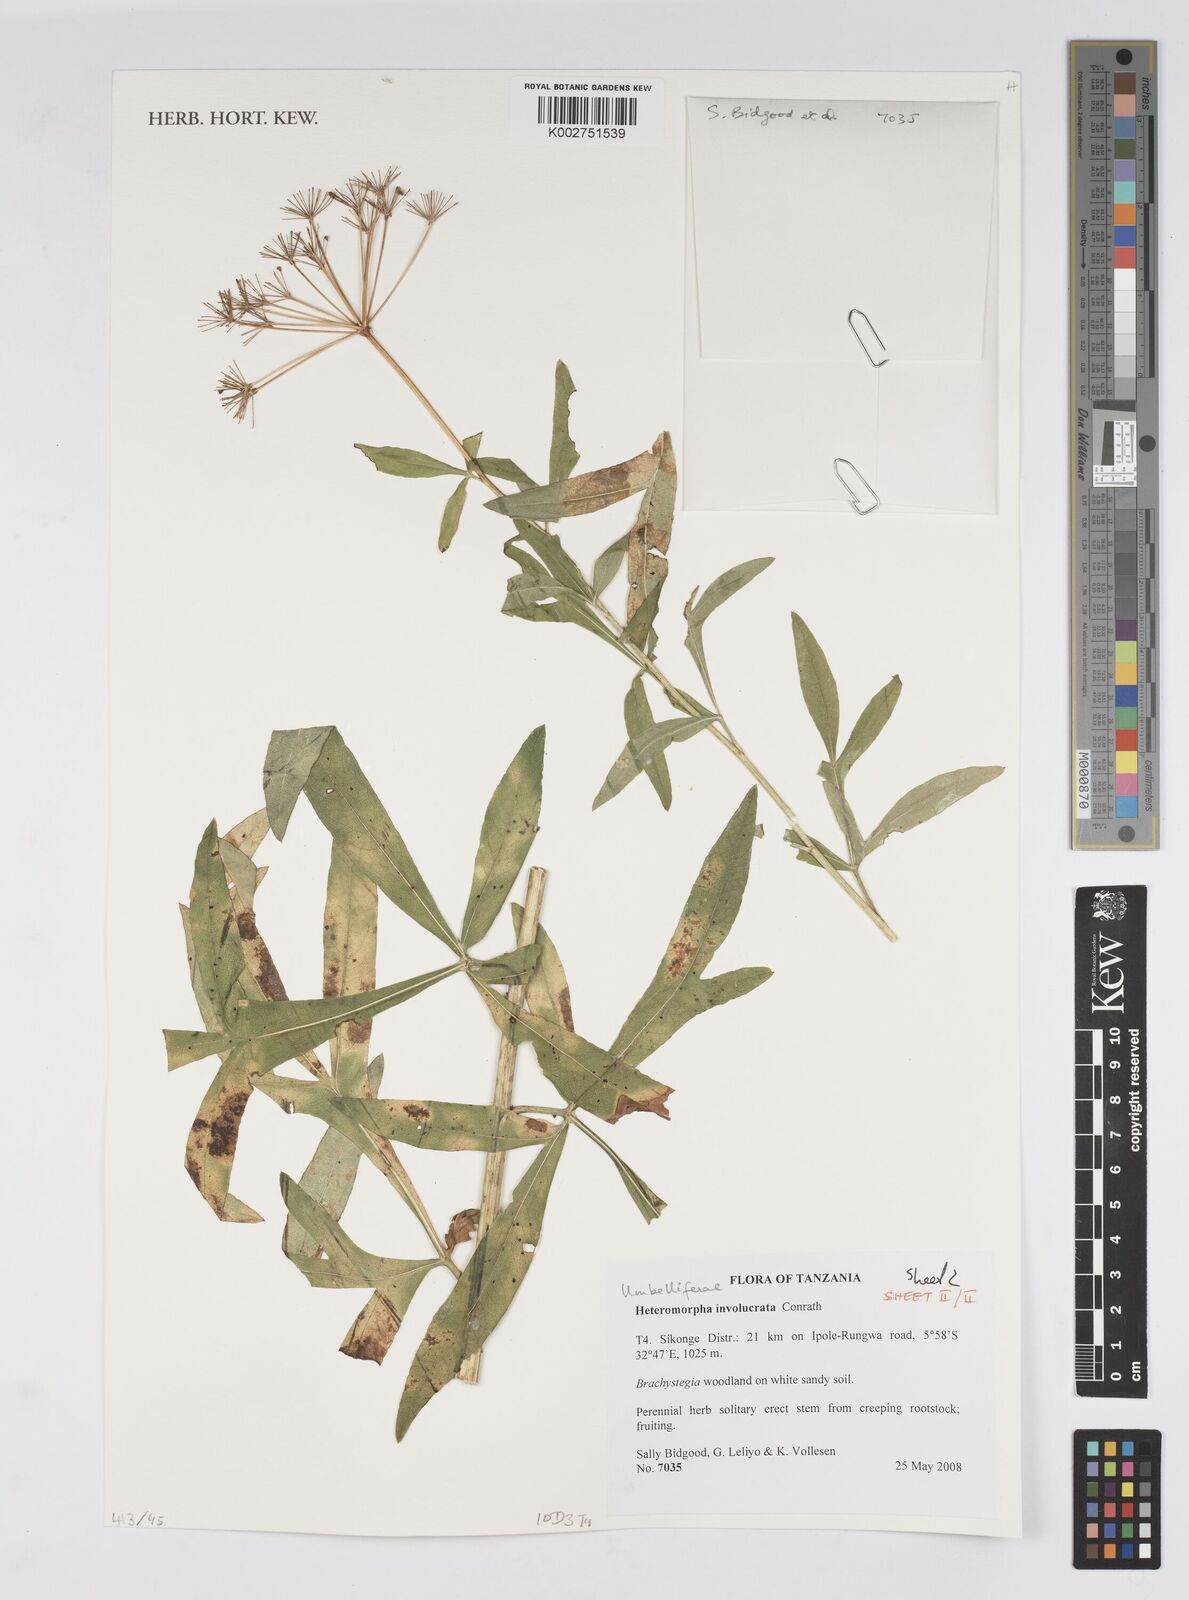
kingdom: Plantae
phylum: Tracheophyta
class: Magnoliopsida
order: Apiales
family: Apiaceae
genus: Heteromorpha
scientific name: Heteromorpha involucrata
